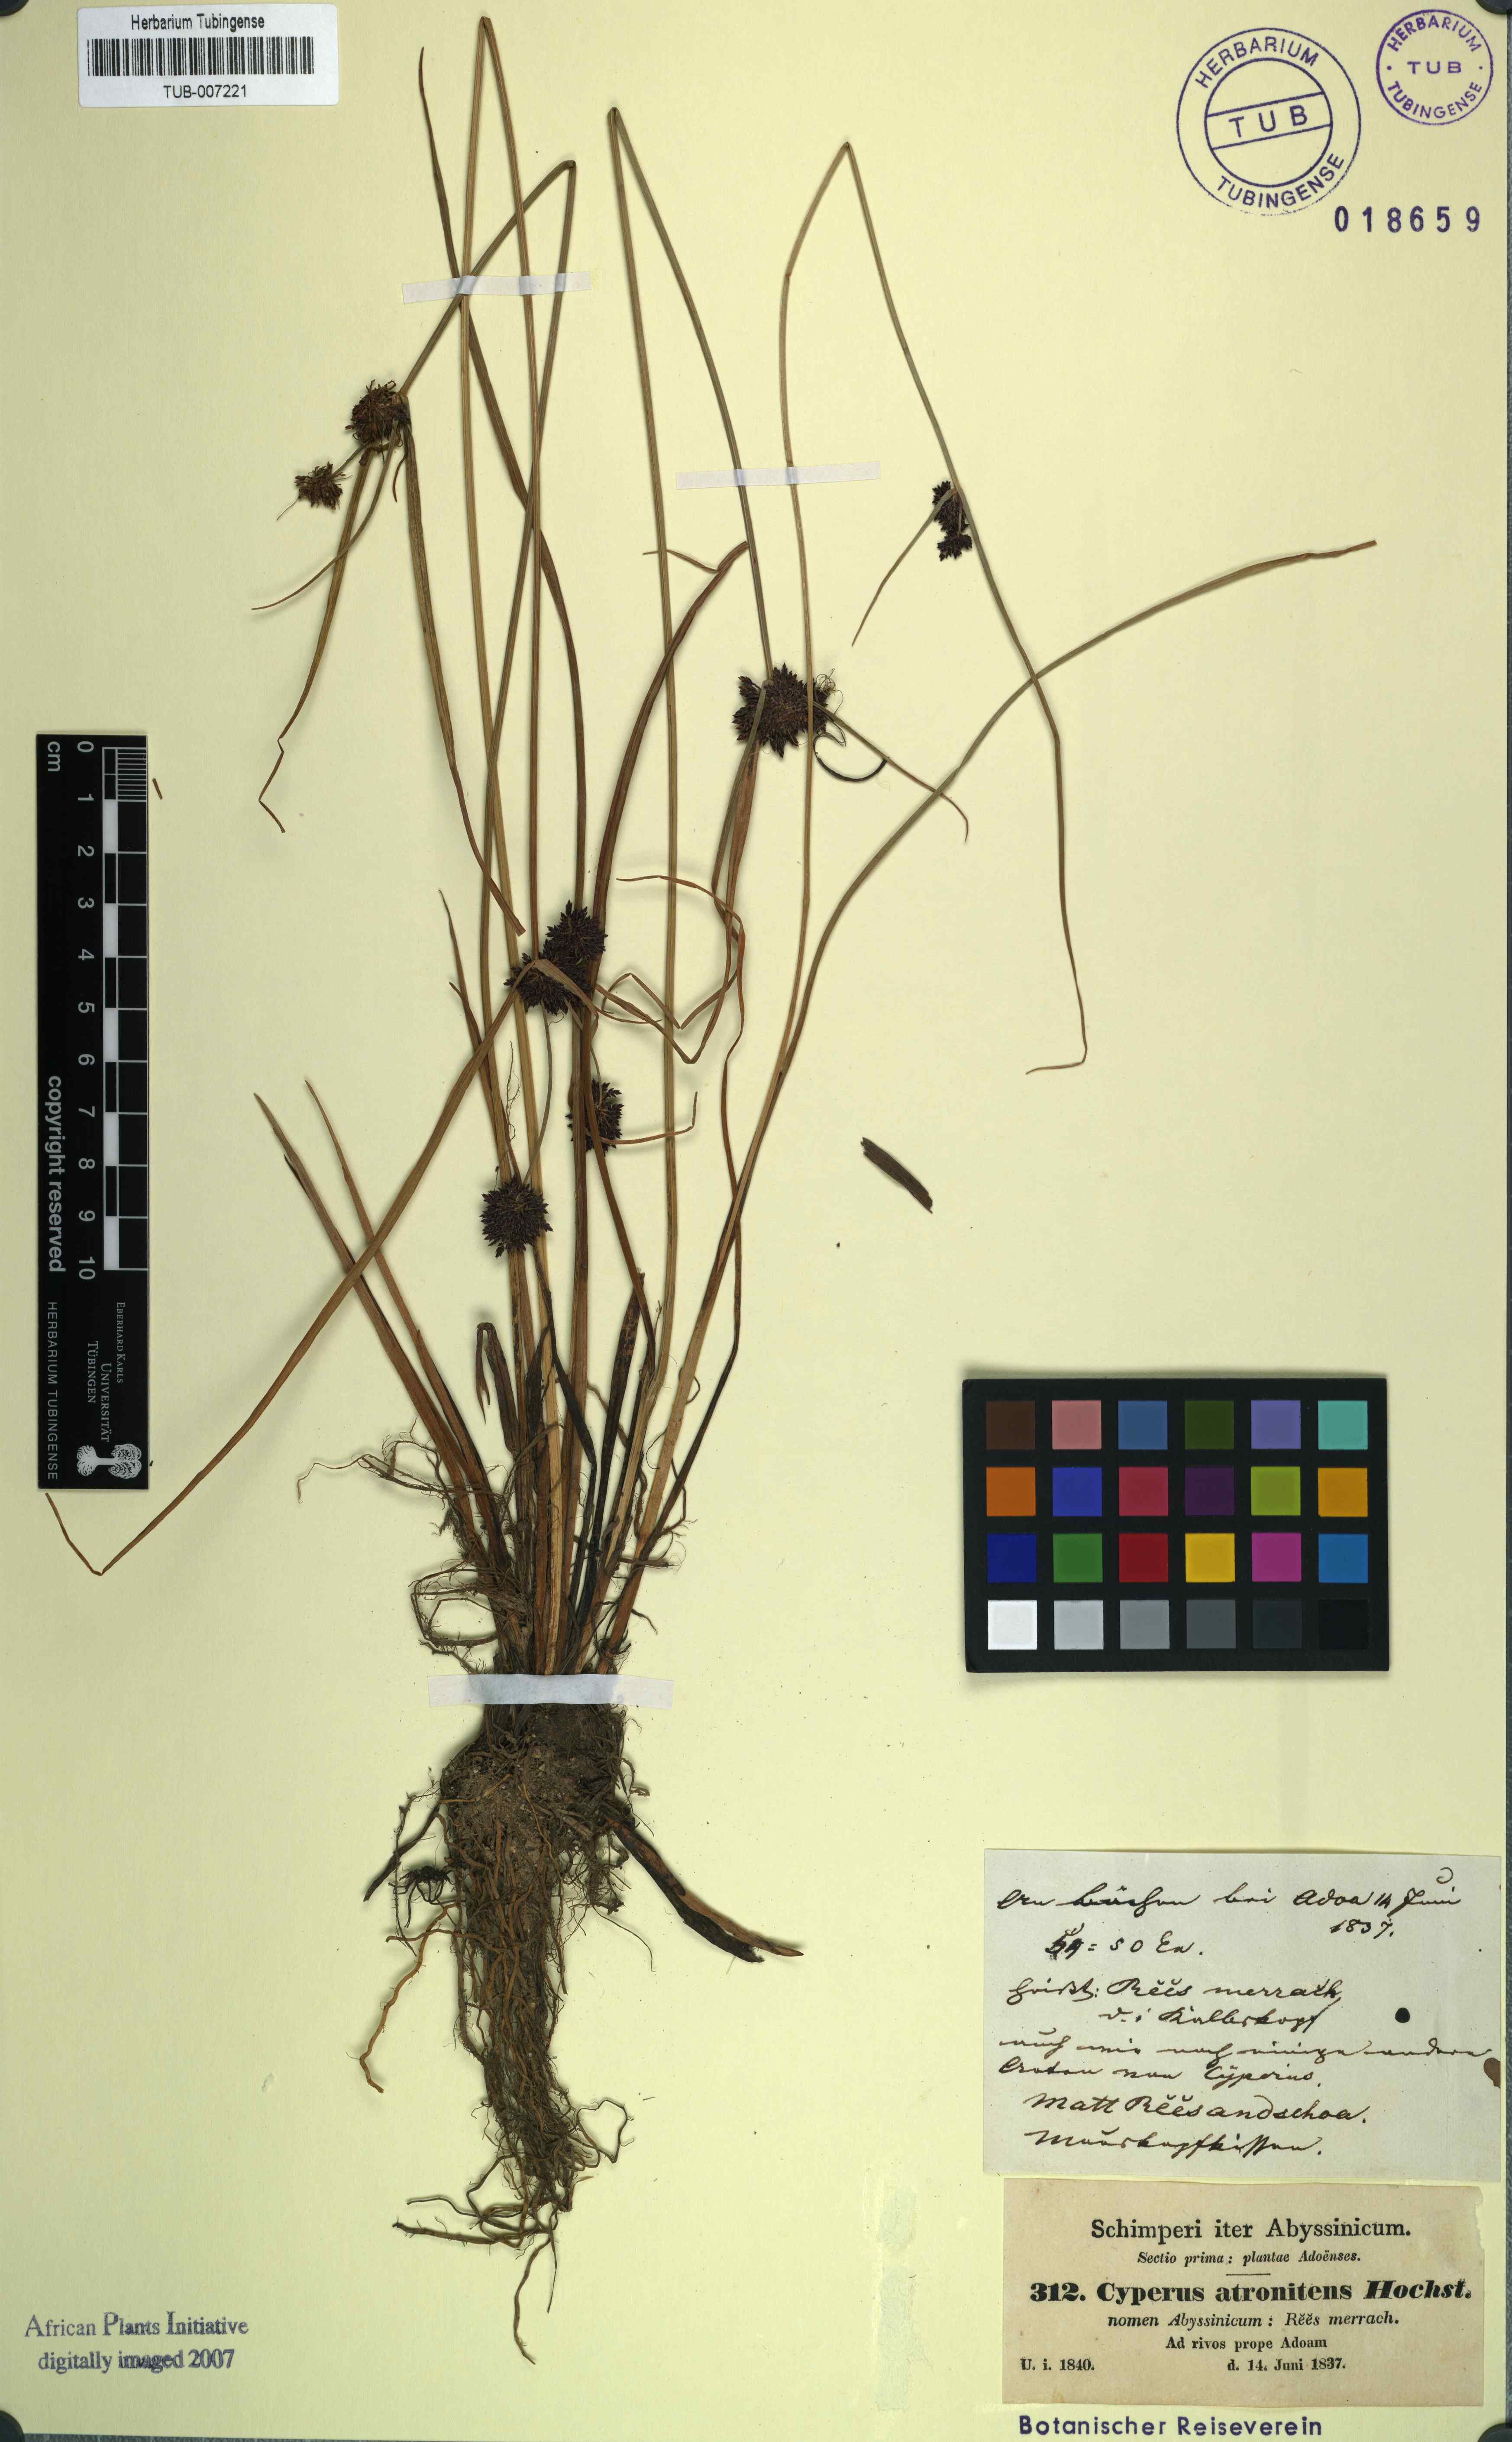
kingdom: Plantae
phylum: Tracheophyta
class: Liliopsida
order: Poales
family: Cyperaceae
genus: Cyperus
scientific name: Cyperus elegantulus
